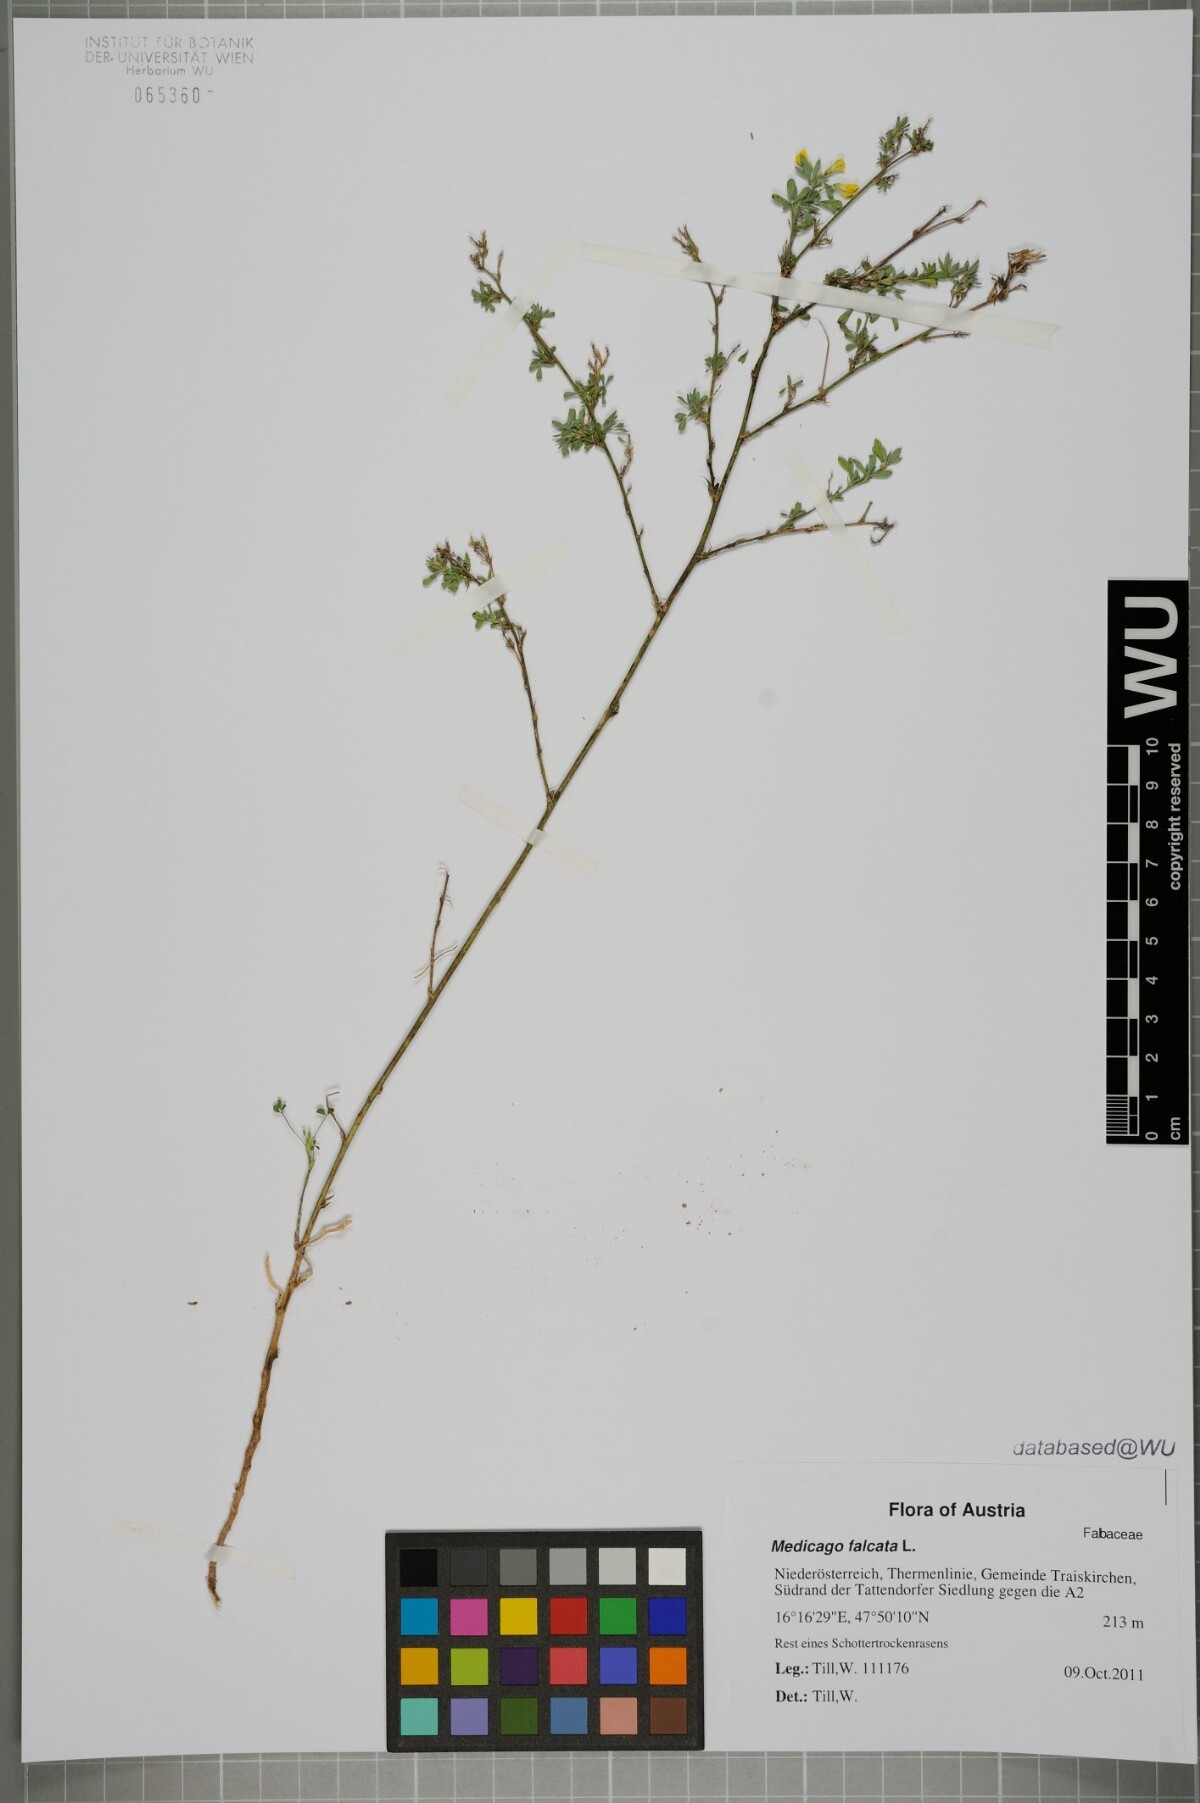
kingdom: Plantae
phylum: Tracheophyta
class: Magnoliopsida
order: Fabales
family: Fabaceae
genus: Medicago
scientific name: Medicago falcata
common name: Sickle medick
